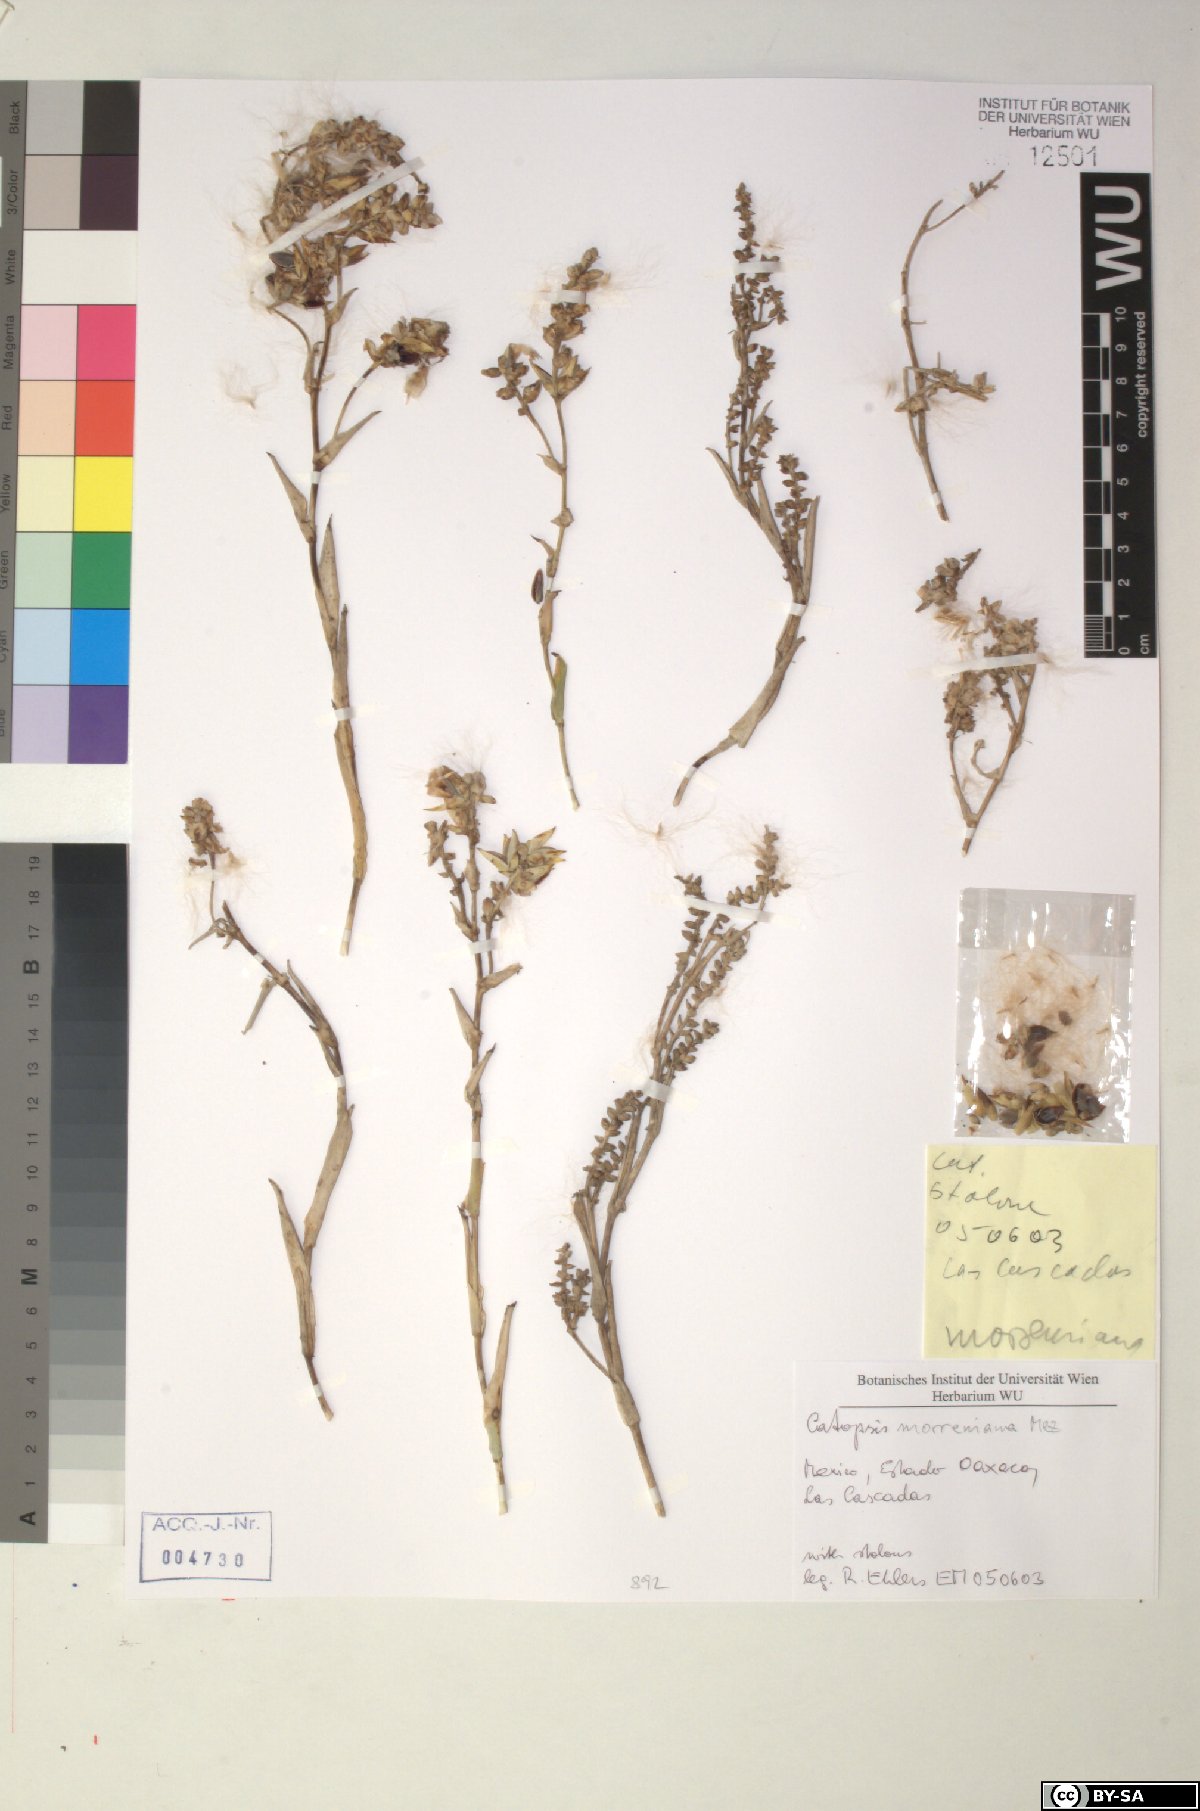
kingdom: Plantae
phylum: Tracheophyta
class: Liliopsida
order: Poales
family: Bromeliaceae
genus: Catopsis
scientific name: Catopsis morreniana
